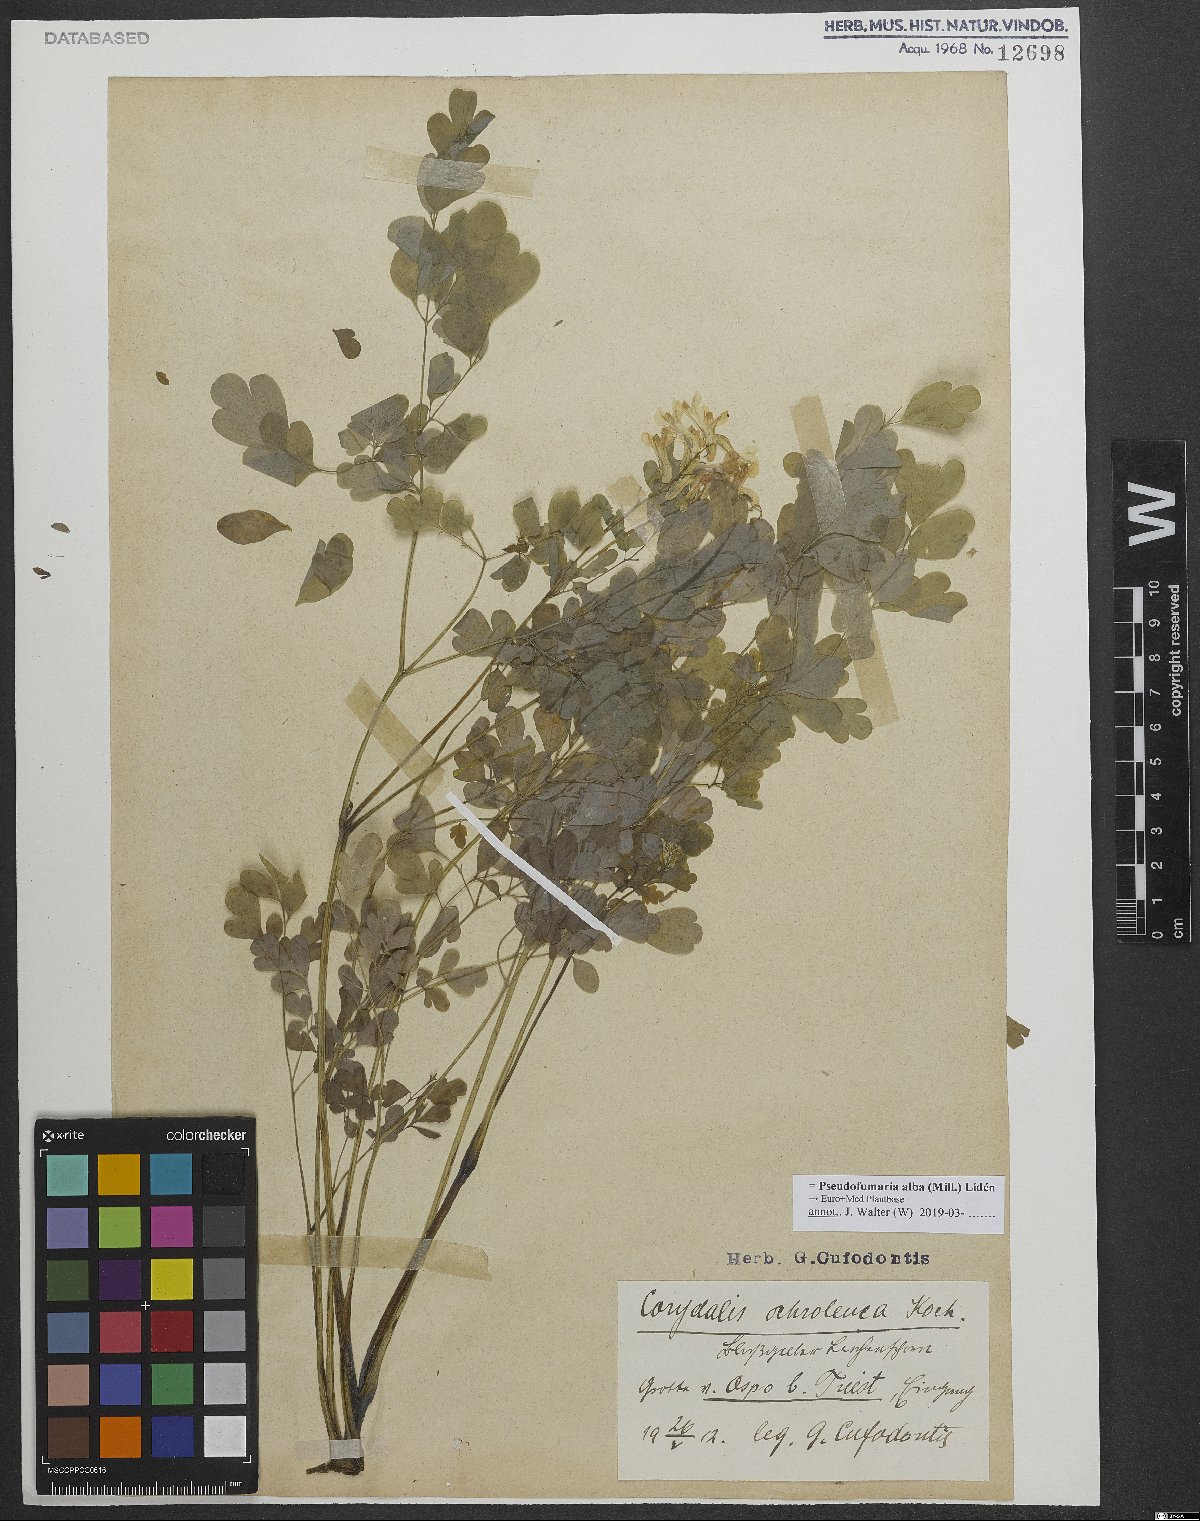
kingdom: Plantae
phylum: Tracheophyta
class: Magnoliopsida
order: Ranunculales
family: Papaveraceae
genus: Pseudofumaria
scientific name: Pseudofumaria alba
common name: Pale corydalis
